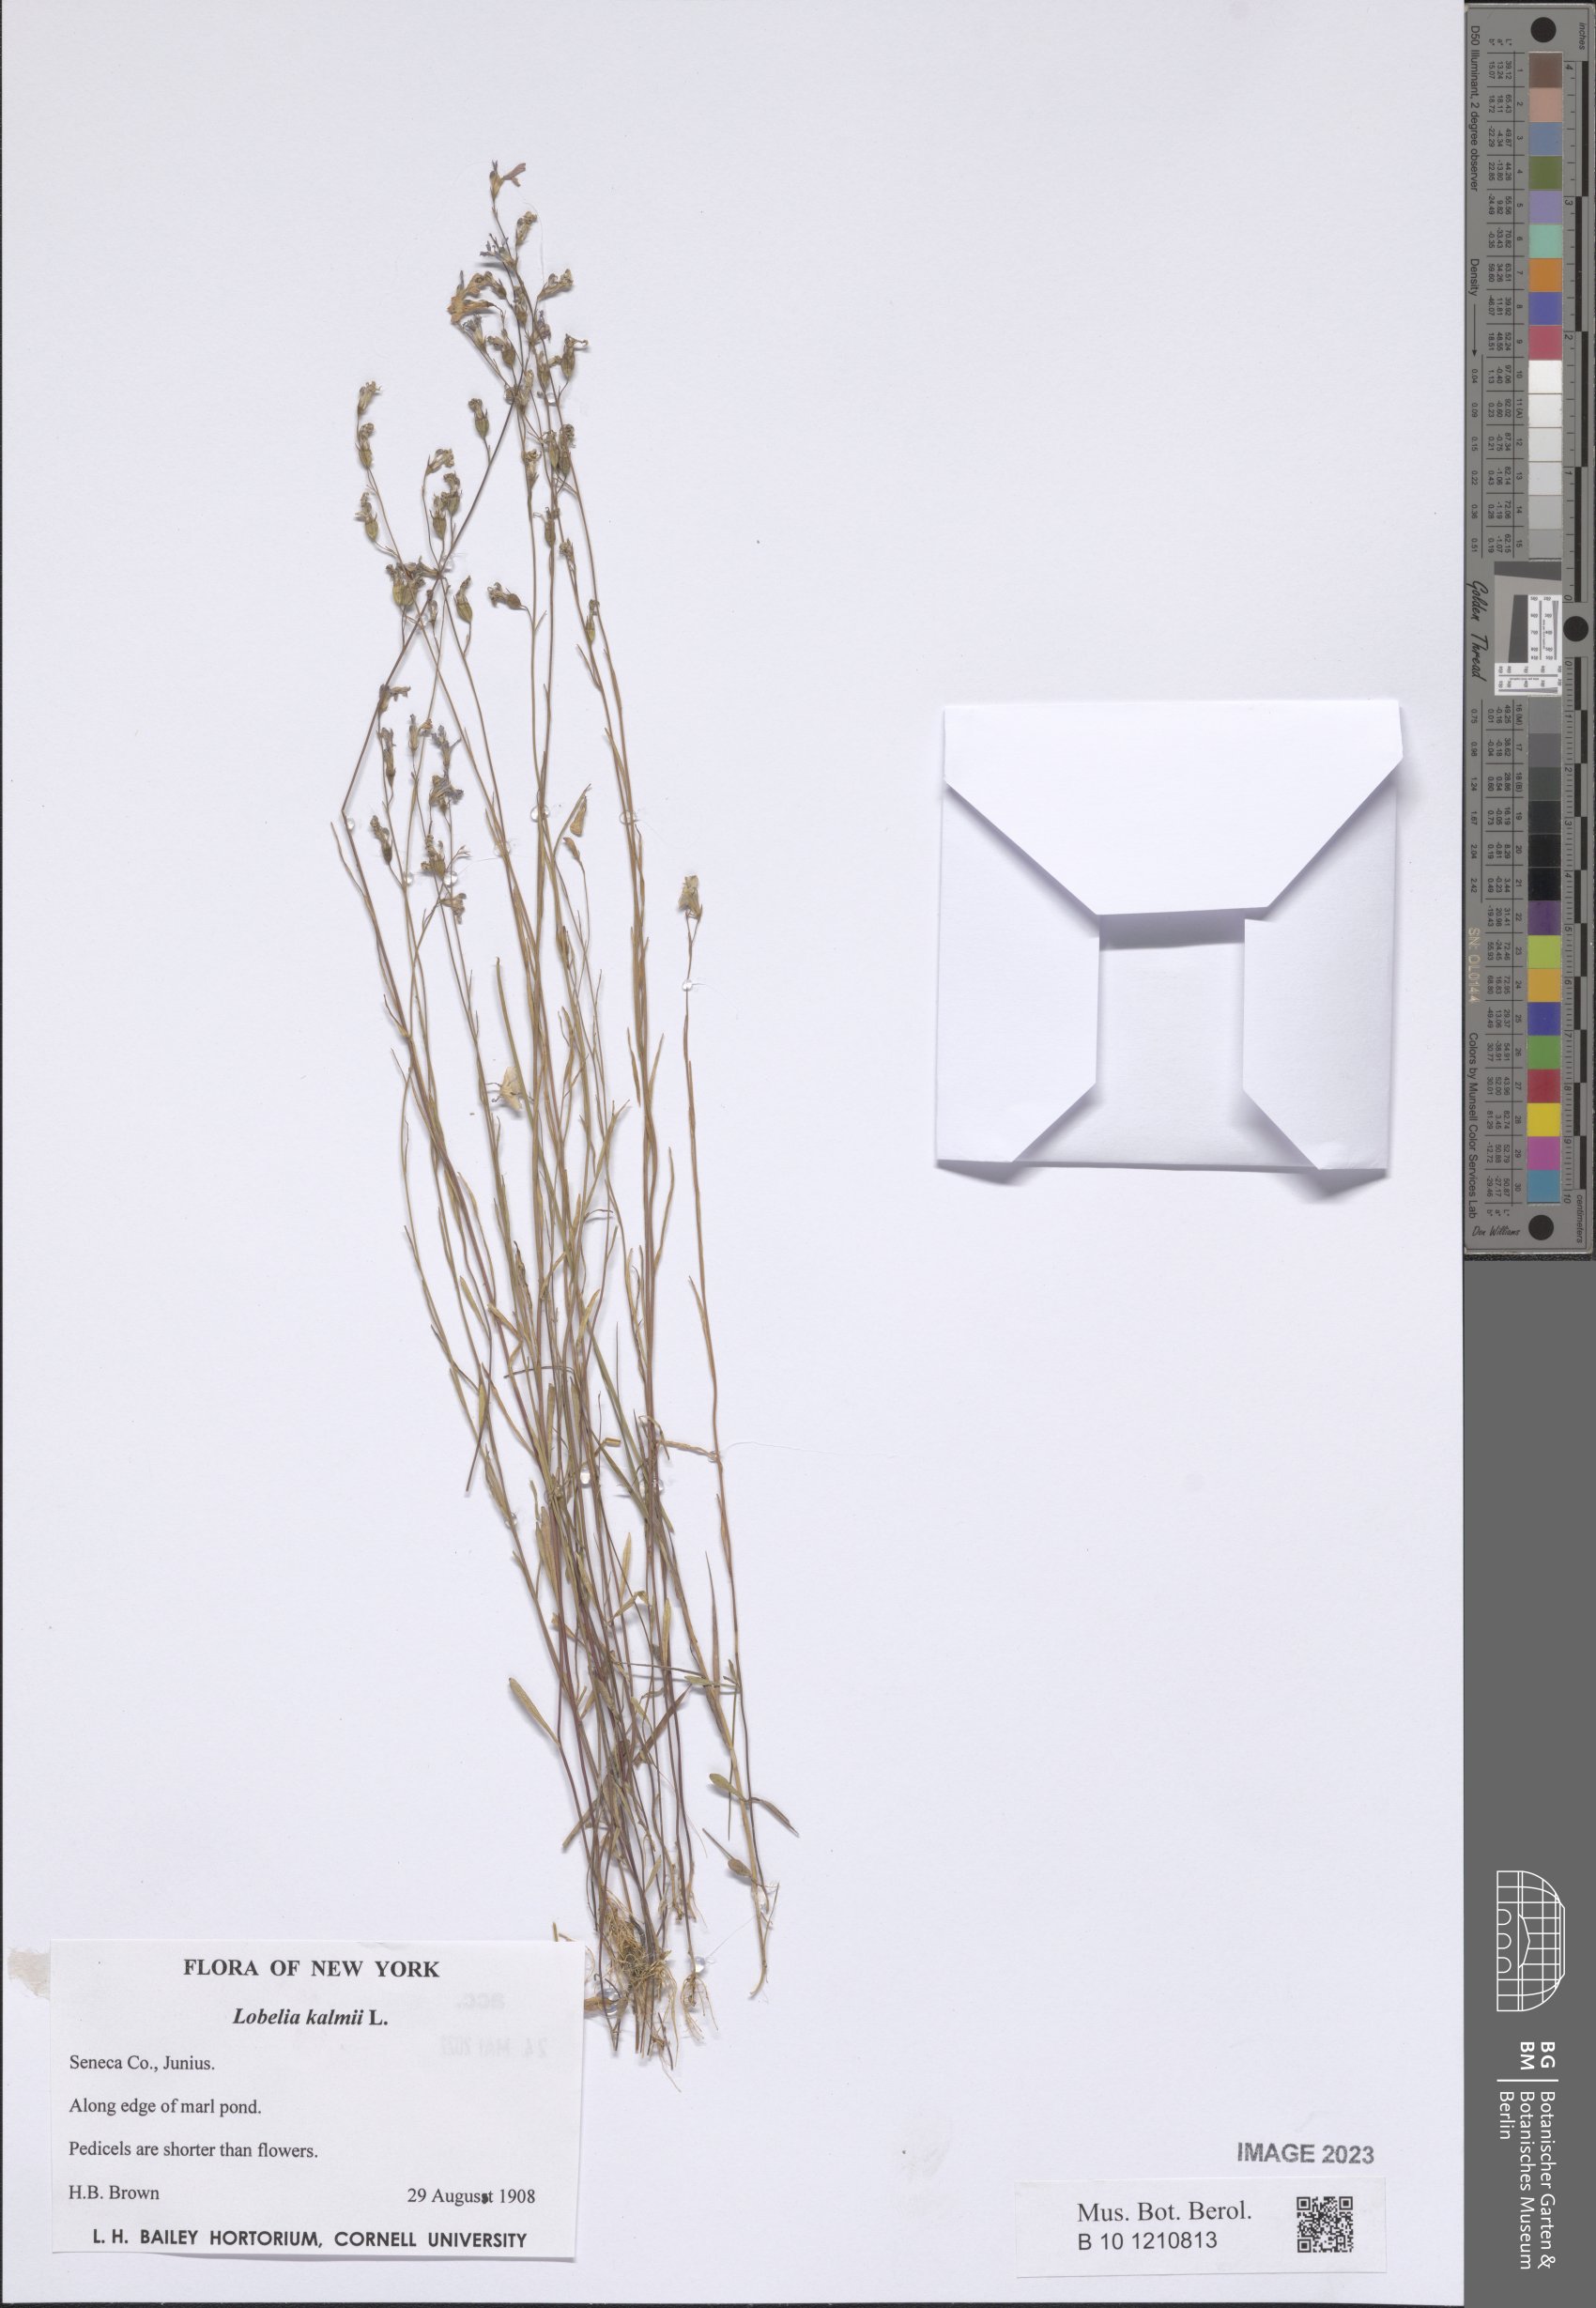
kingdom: Plantae
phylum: Tracheophyta
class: Magnoliopsida
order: Asterales
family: Campanulaceae
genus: Lobelia
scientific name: Lobelia kalmii
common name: Kalm's lobelia
